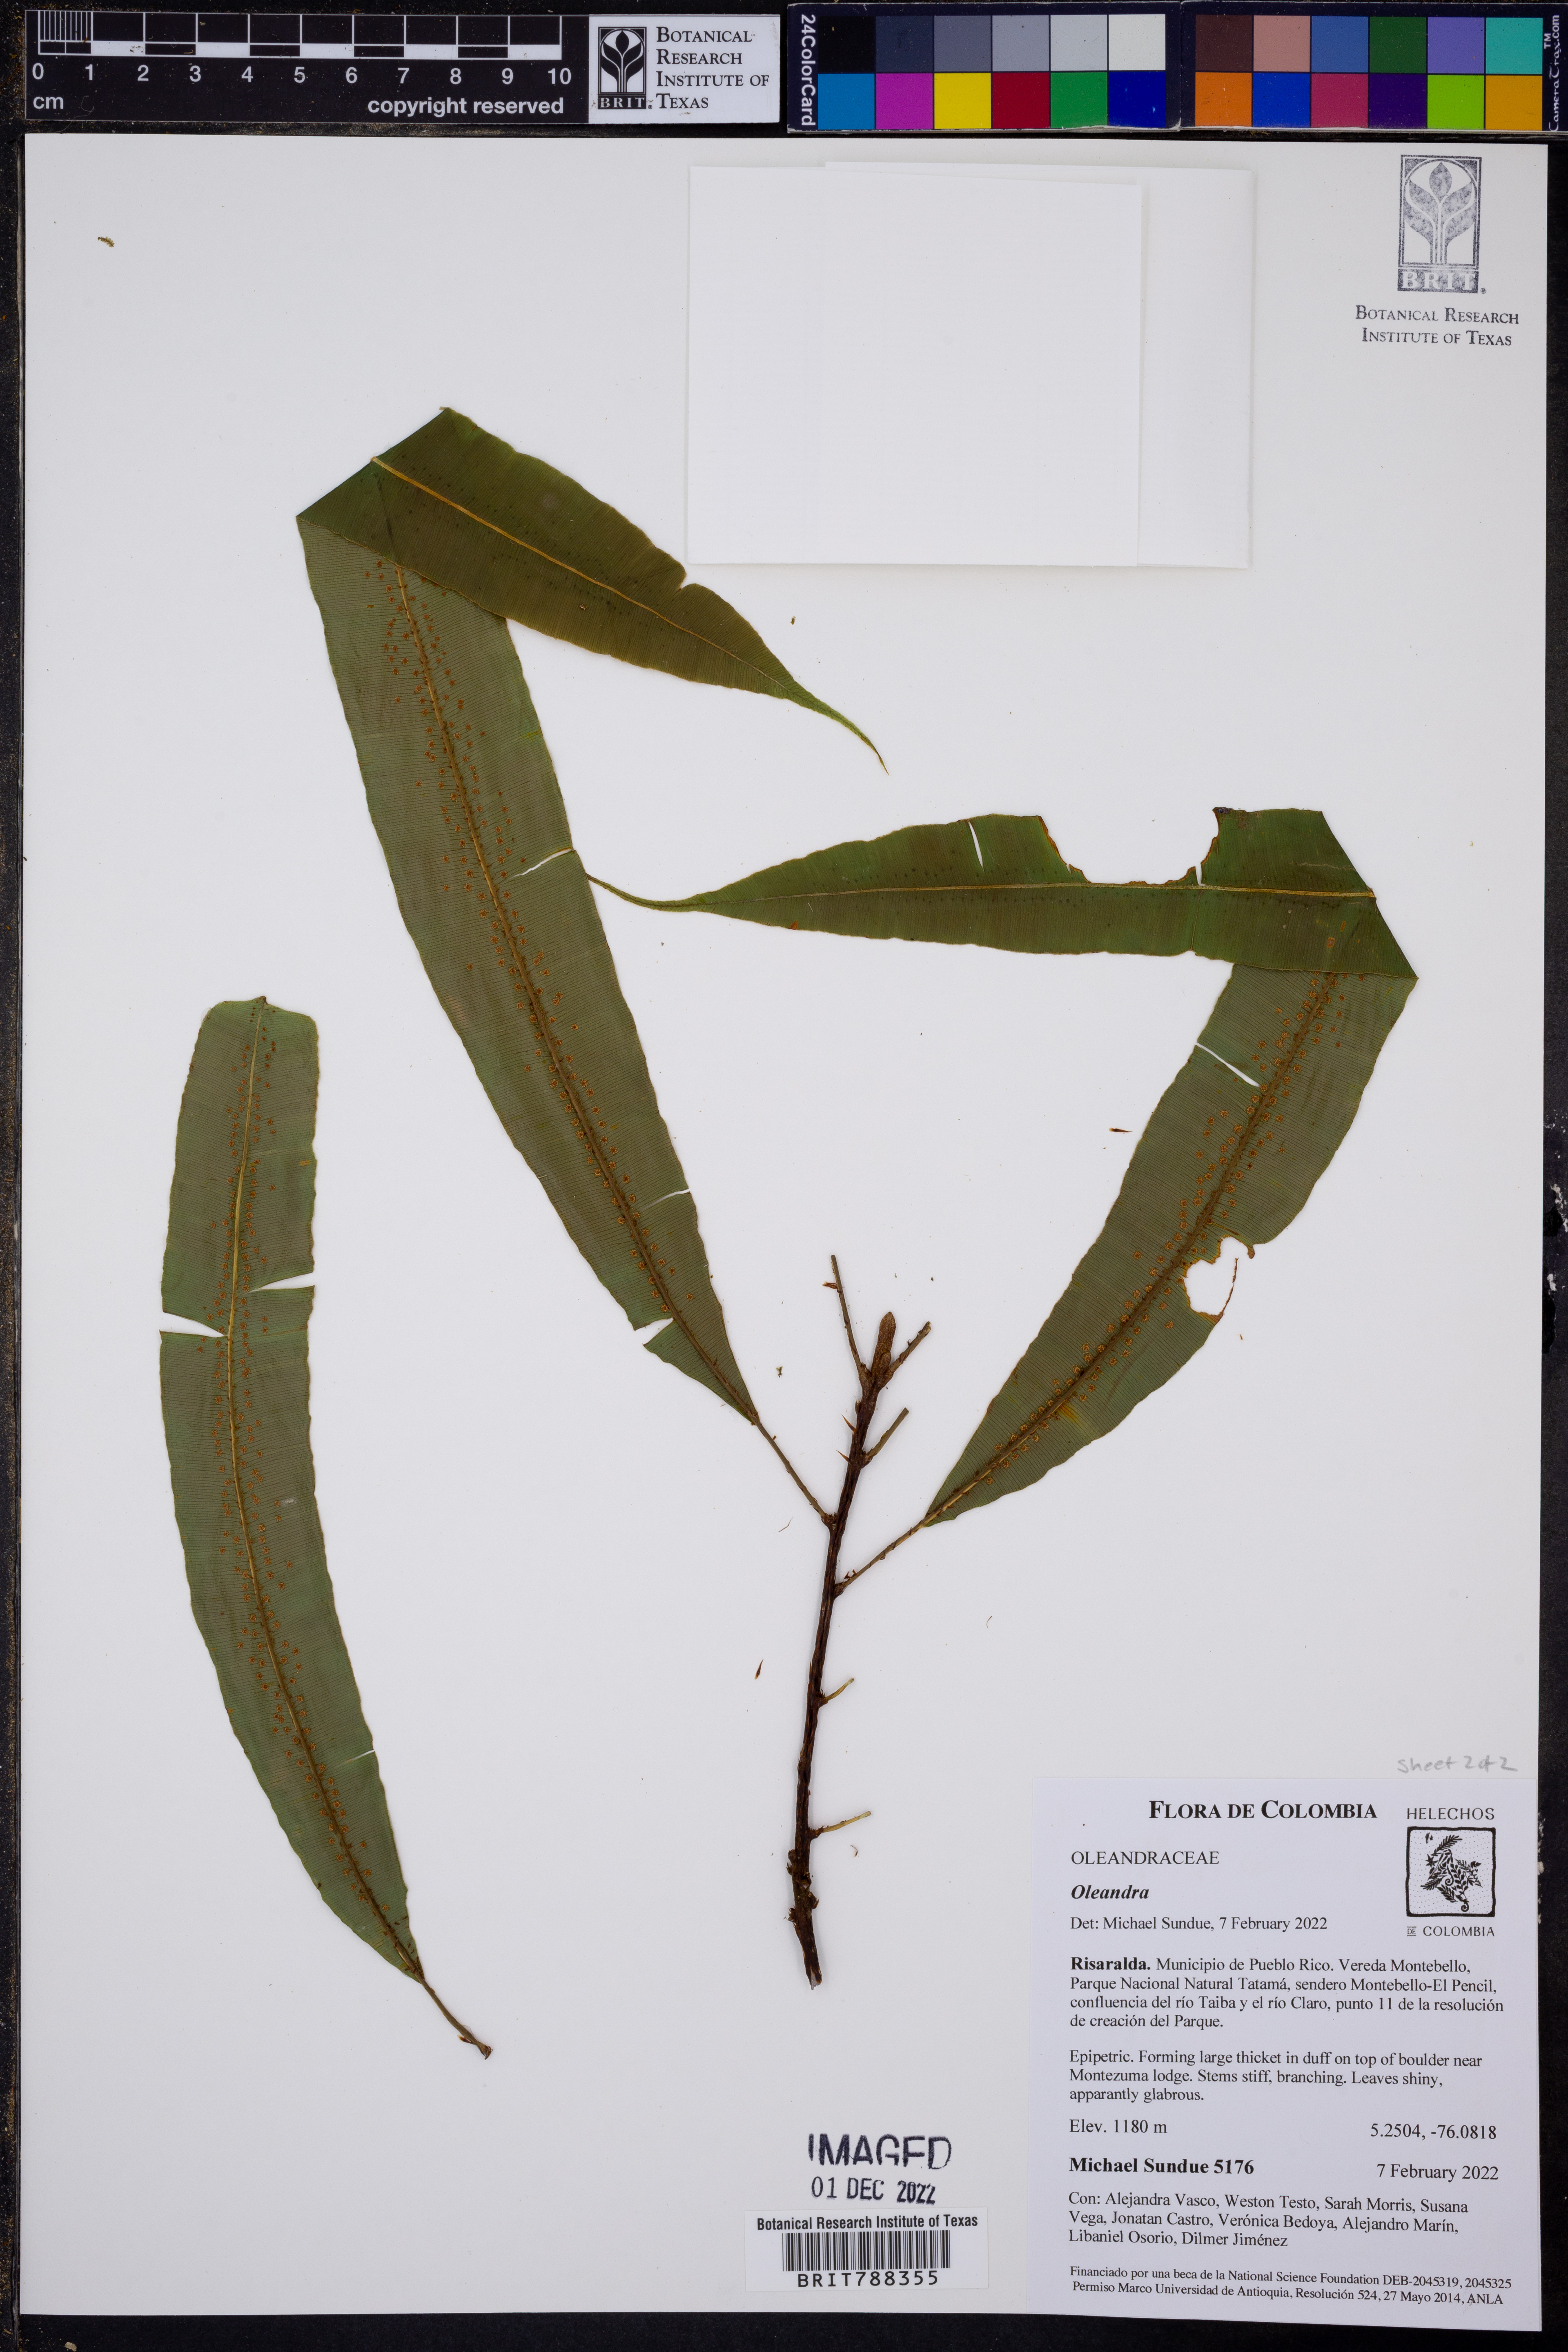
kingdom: Plantae
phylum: Tracheophyta
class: Polypodiopsida
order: Polypodiales
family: Oleandraceae
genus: Oleandra
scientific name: Oleandra lehmannii
